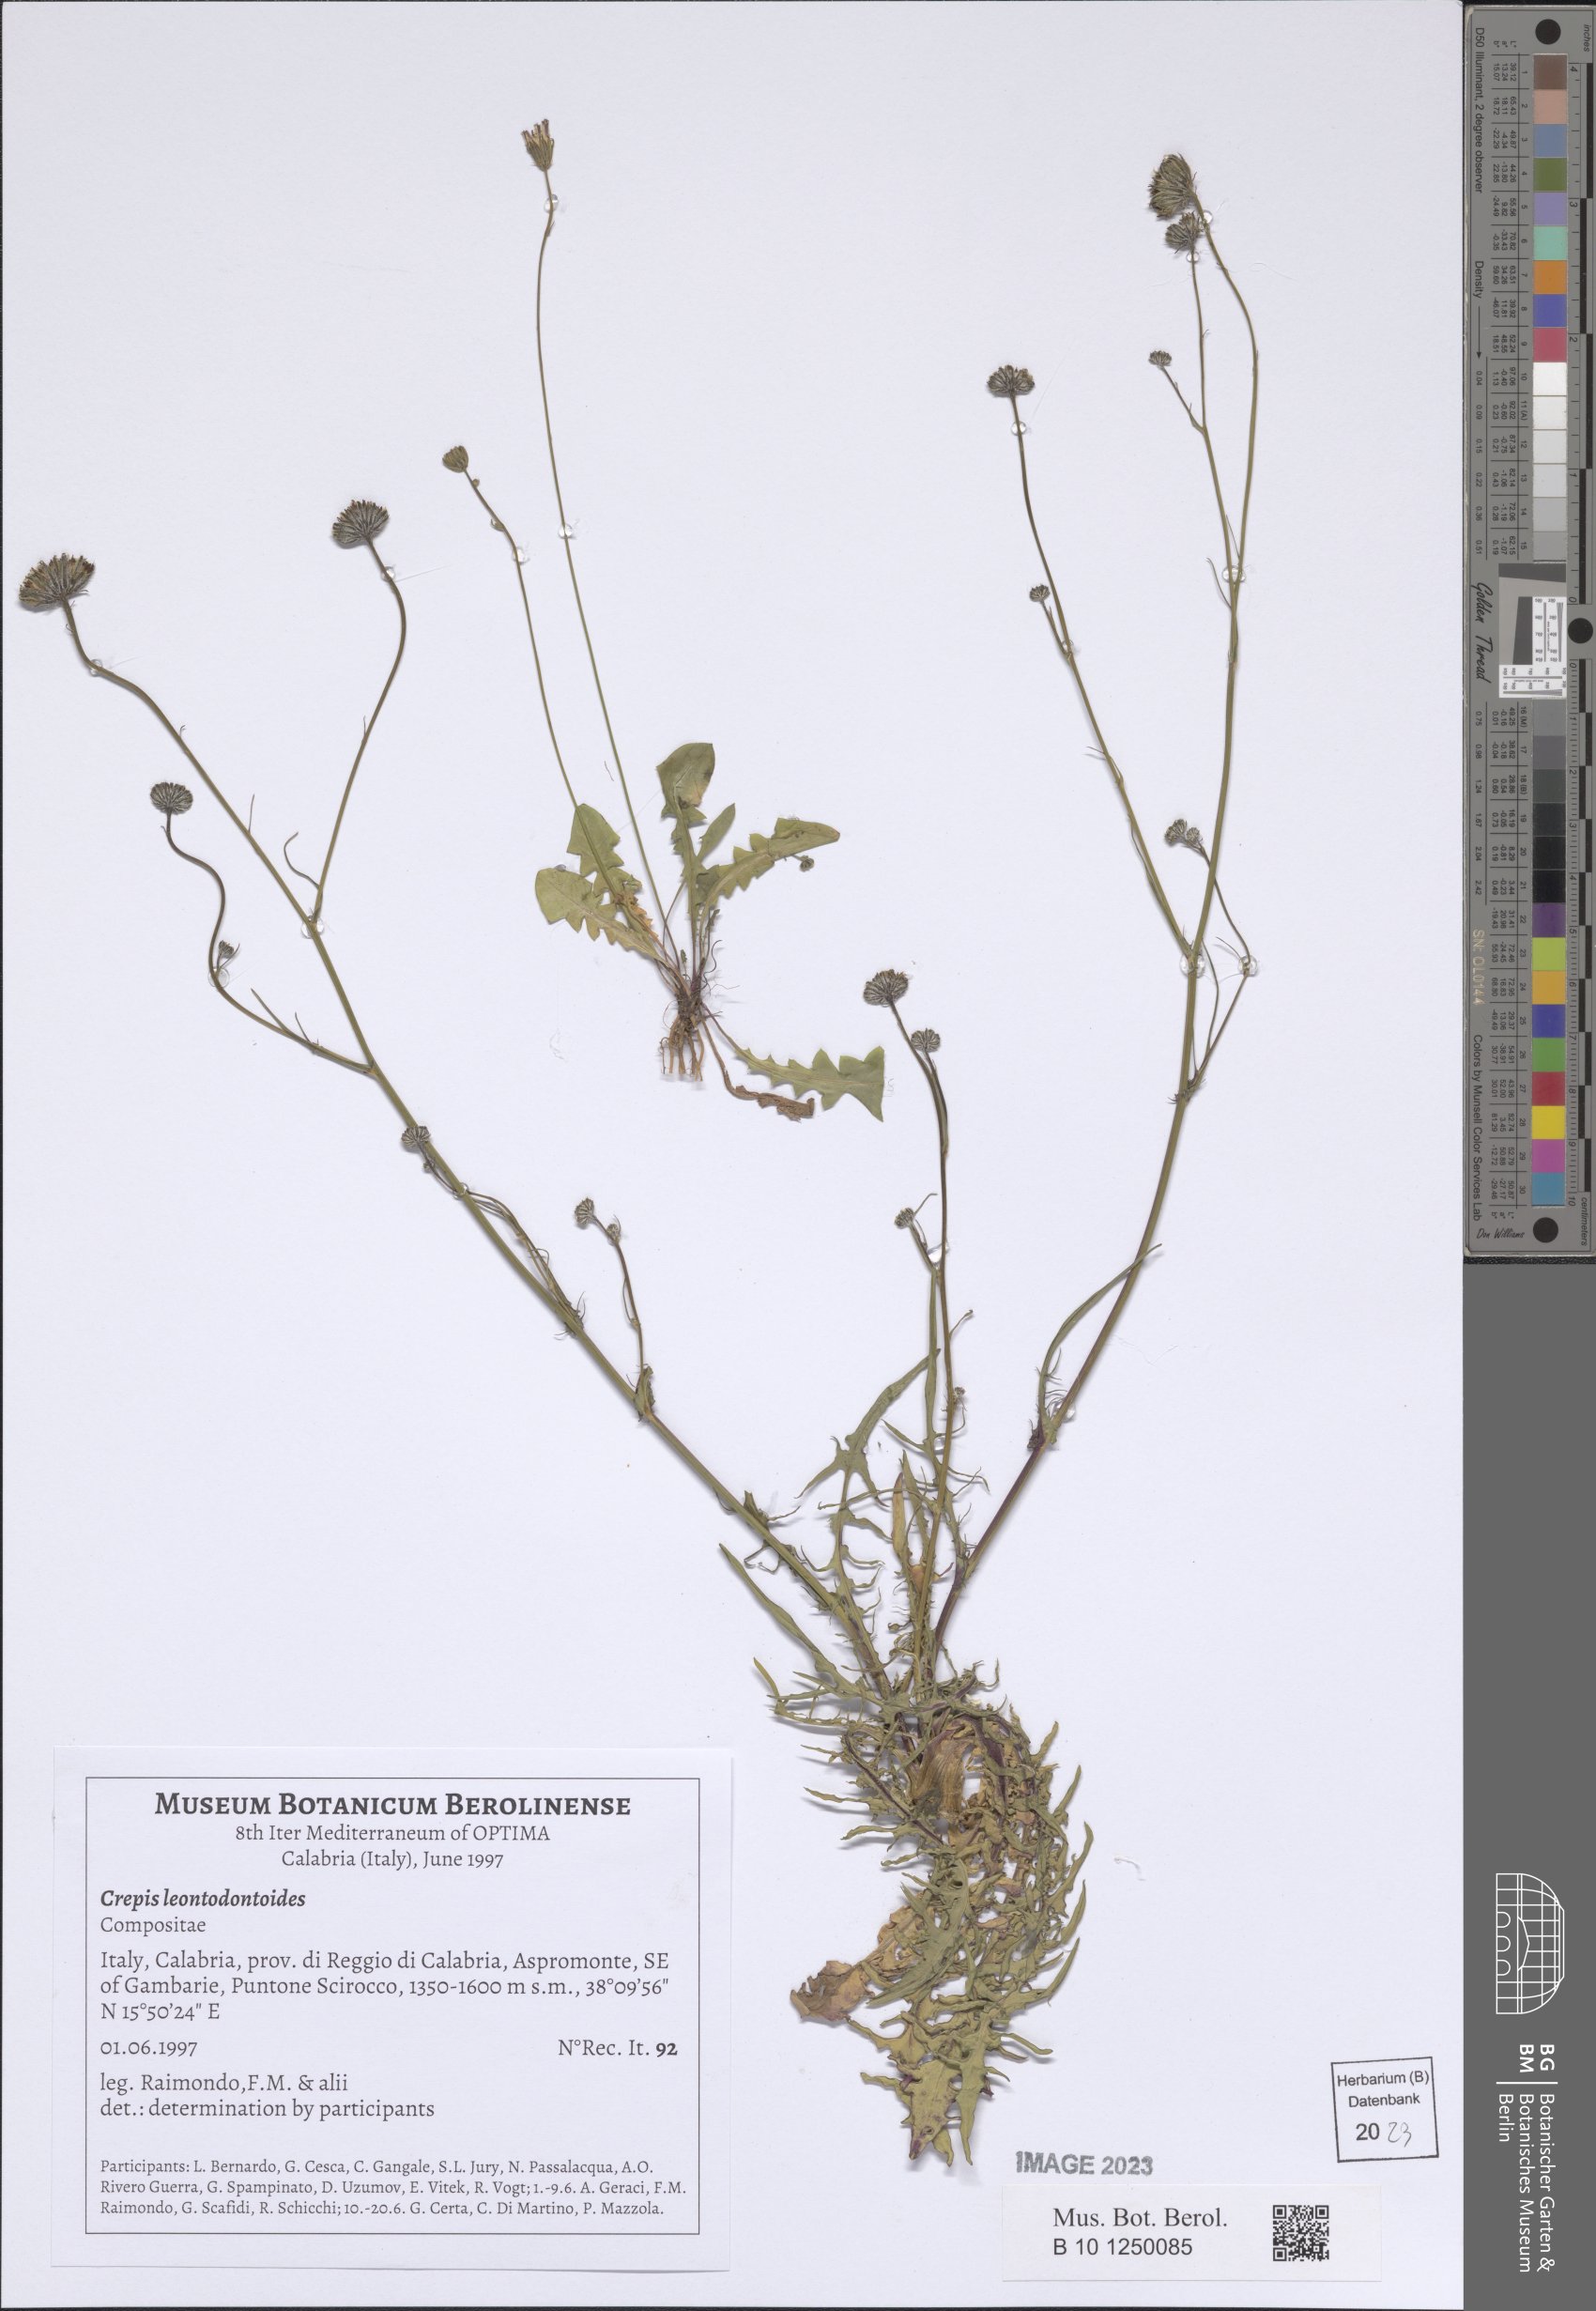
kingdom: Plantae
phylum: Tracheophyta
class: Magnoliopsida
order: Asterales
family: Asteraceae
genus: Crepis
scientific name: Crepis leontodontoides
